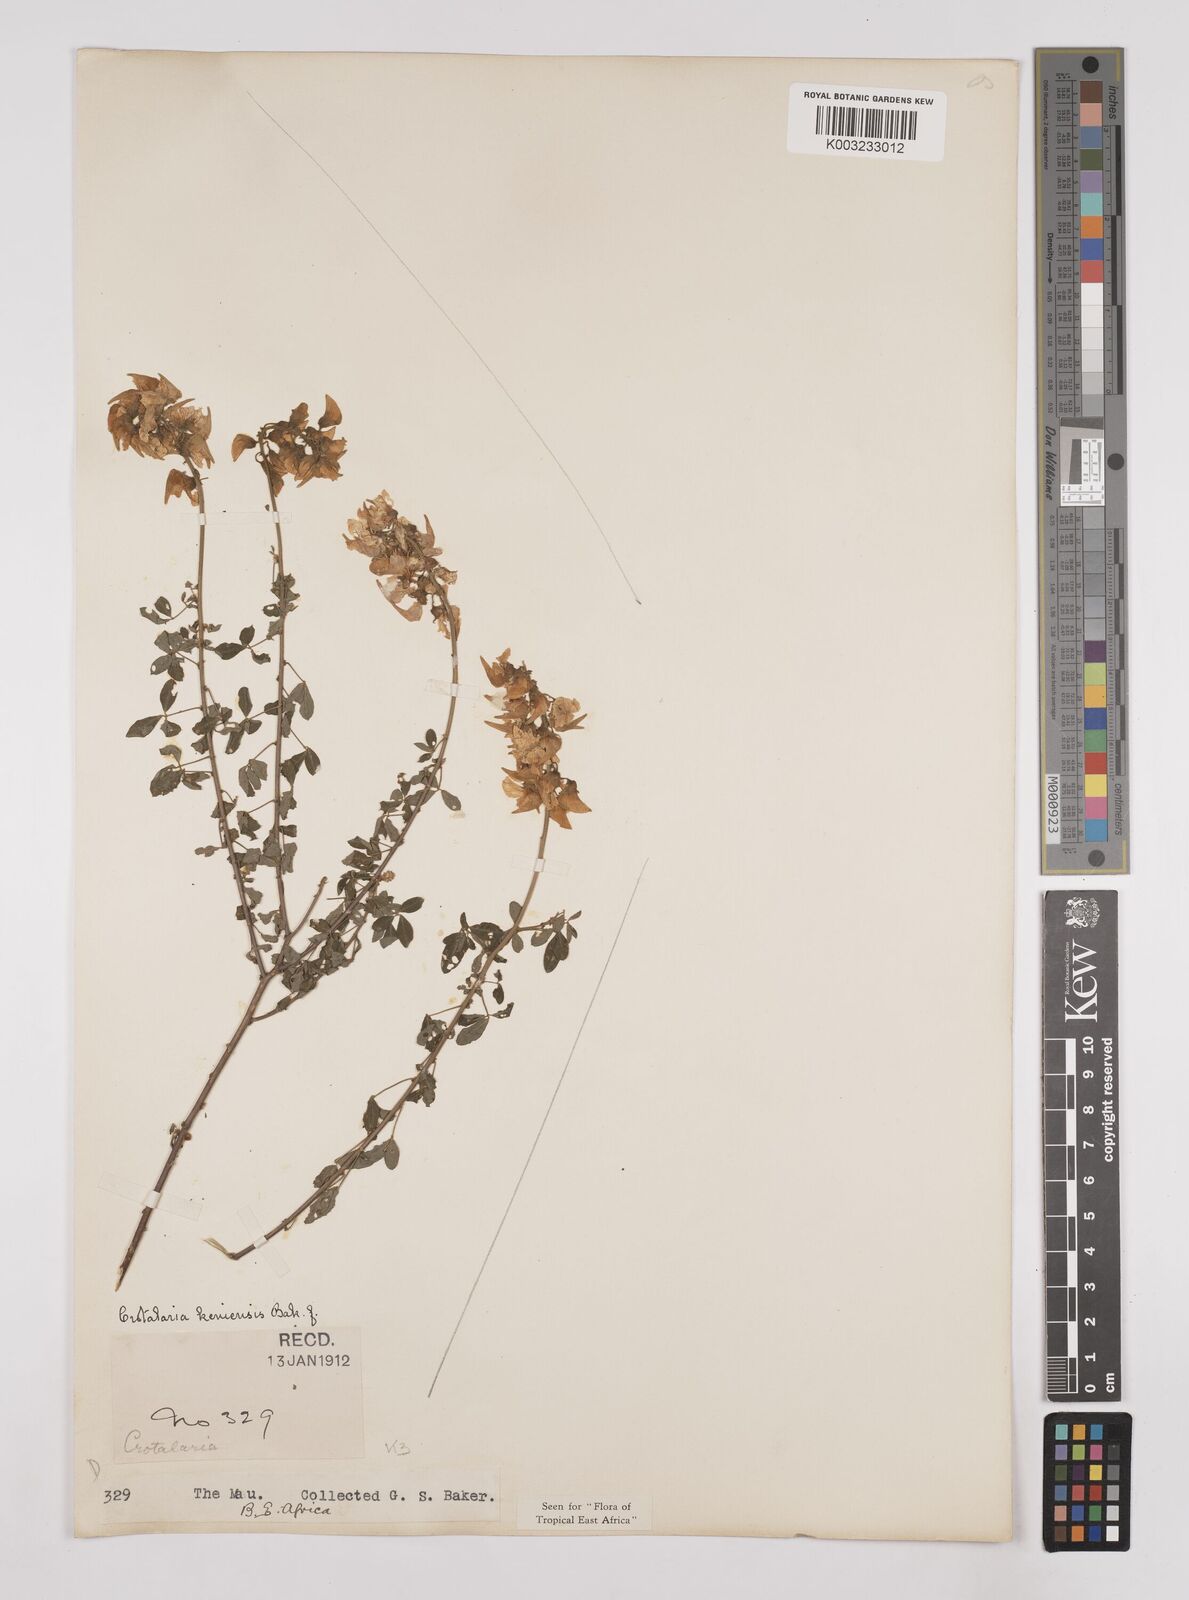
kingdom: Plantae
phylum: Tracheophyta
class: Magnoliopsida
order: Fabales
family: Fabaceae
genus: Crotalaria
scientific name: Crotalaria keniensis
